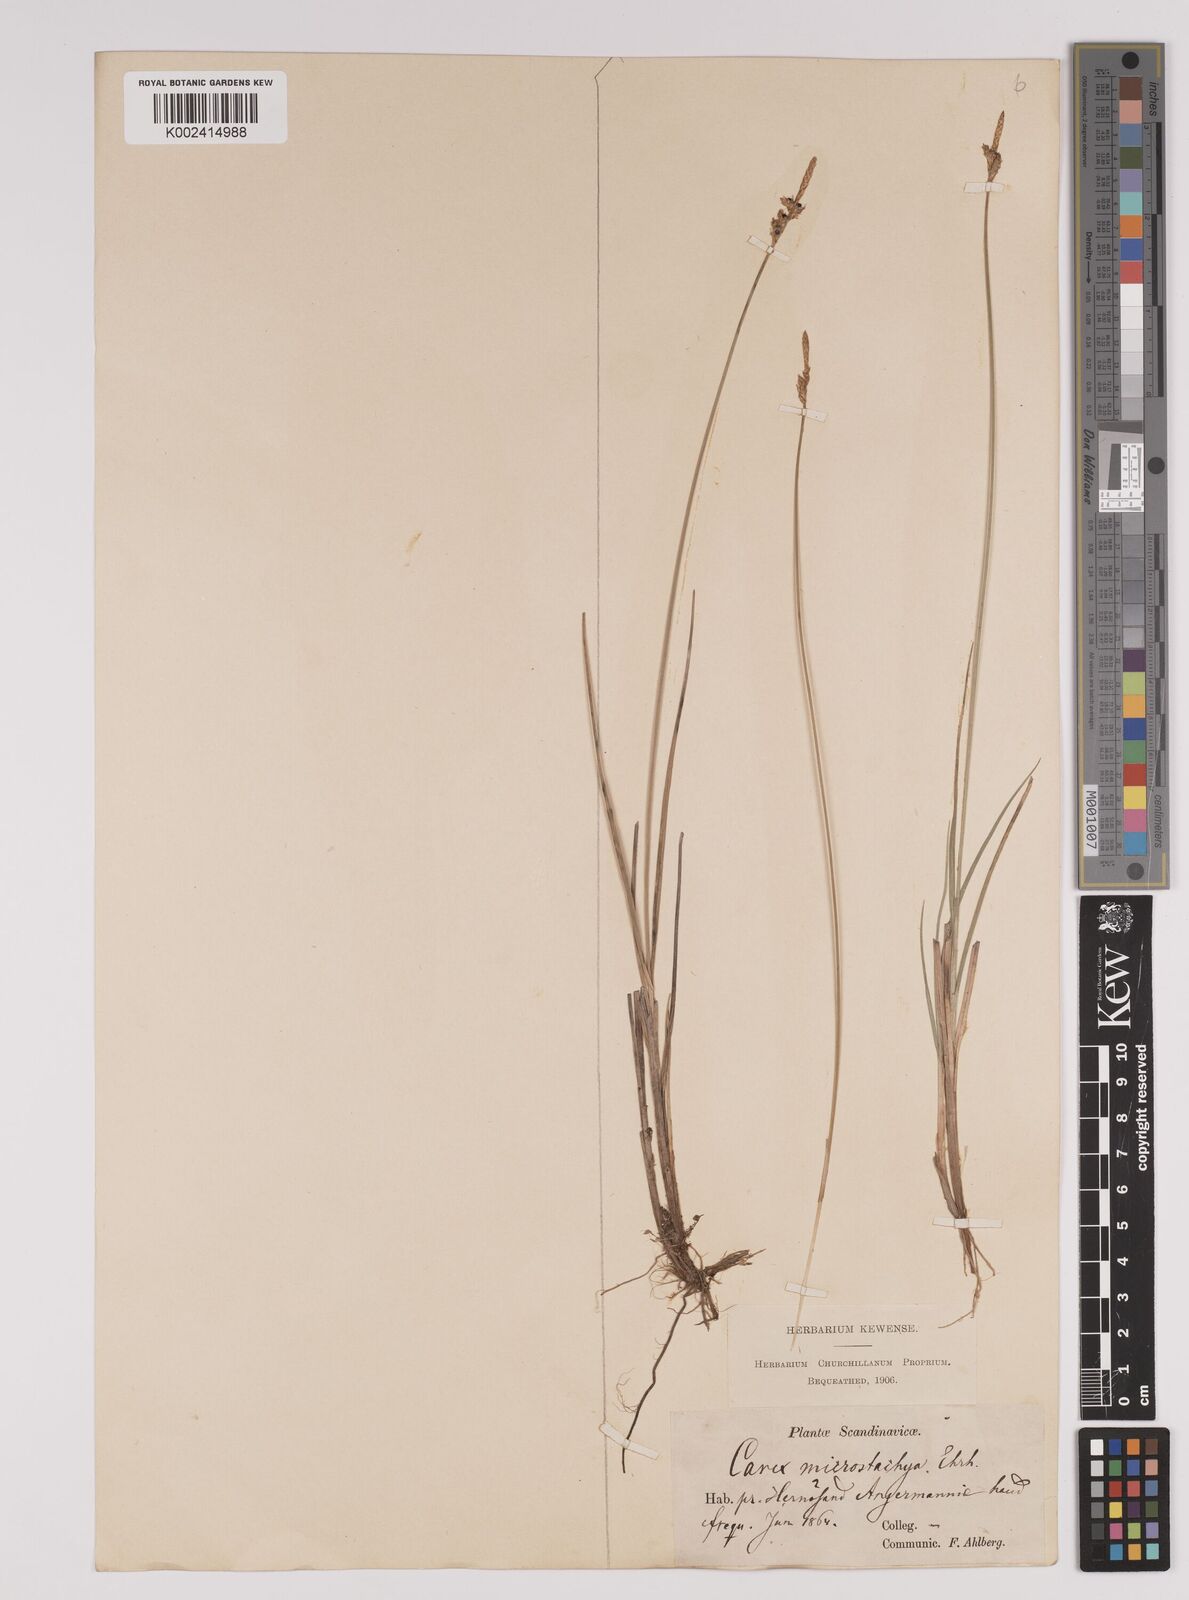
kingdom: Plantae
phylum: Tracheophyta
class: Liliopsida
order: Poales
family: Cyperaceae
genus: Carex
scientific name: Carex
